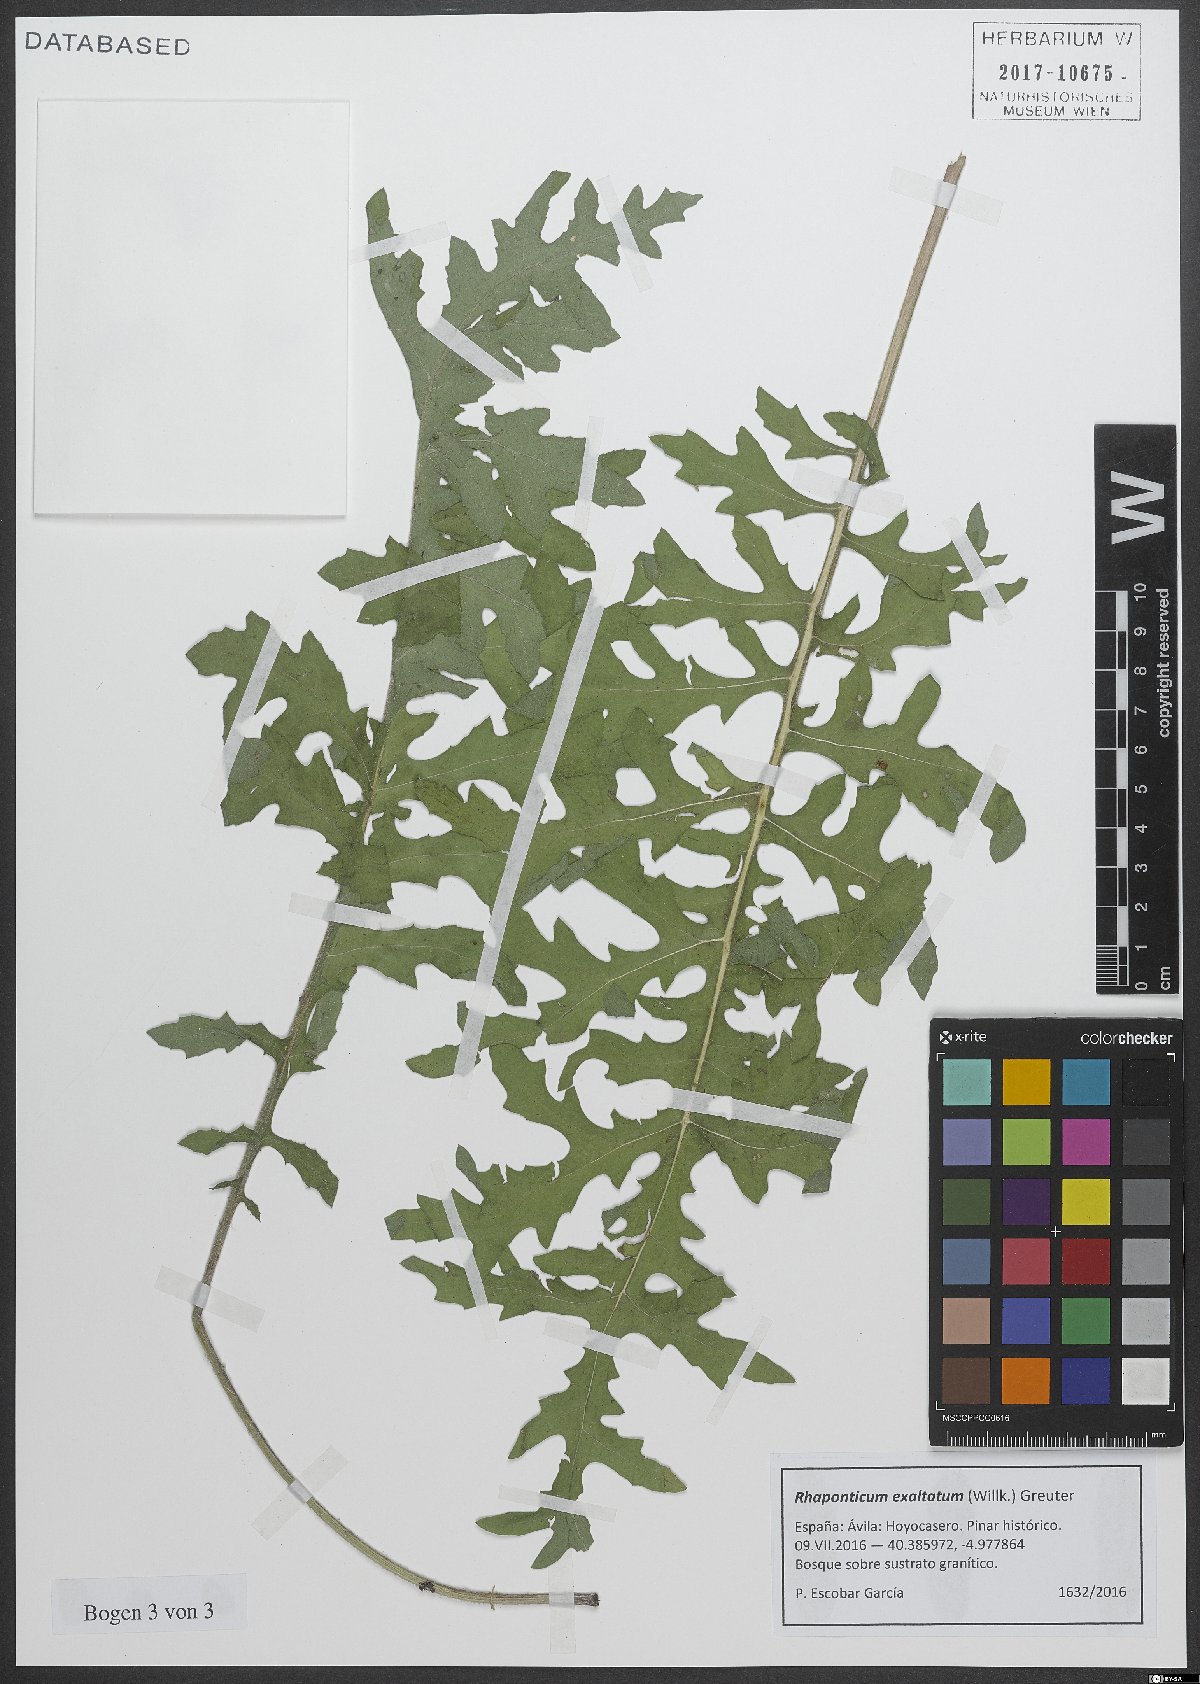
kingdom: Plantae
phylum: Tracheophyta
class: Magnoliopsida
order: Asterales
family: Asteraceae
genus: Leuzea
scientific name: Leuzea exaltata
